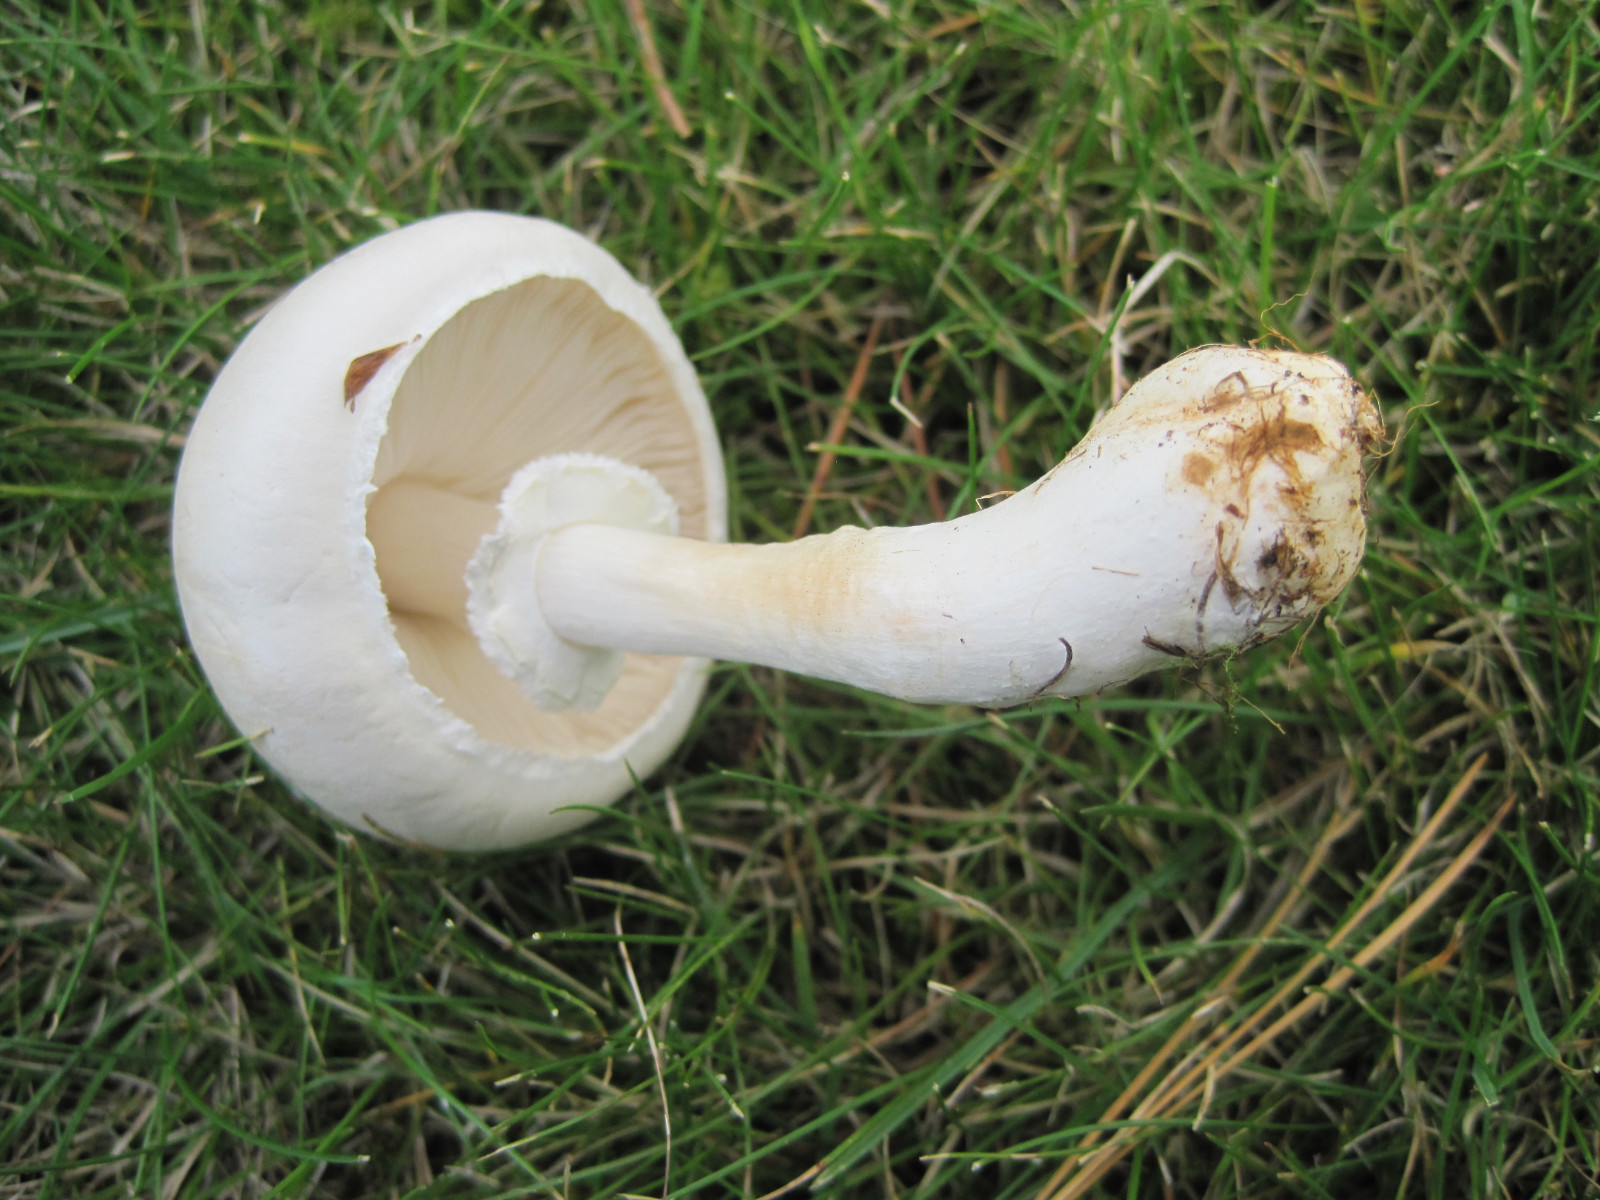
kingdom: Fungi
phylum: Basidiomycota
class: Agaricomycetes
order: Agaricales
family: Agaricaceae
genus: Leucoagaricus
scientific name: Leucoagaricus leucothites
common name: rosabladet silkehat
